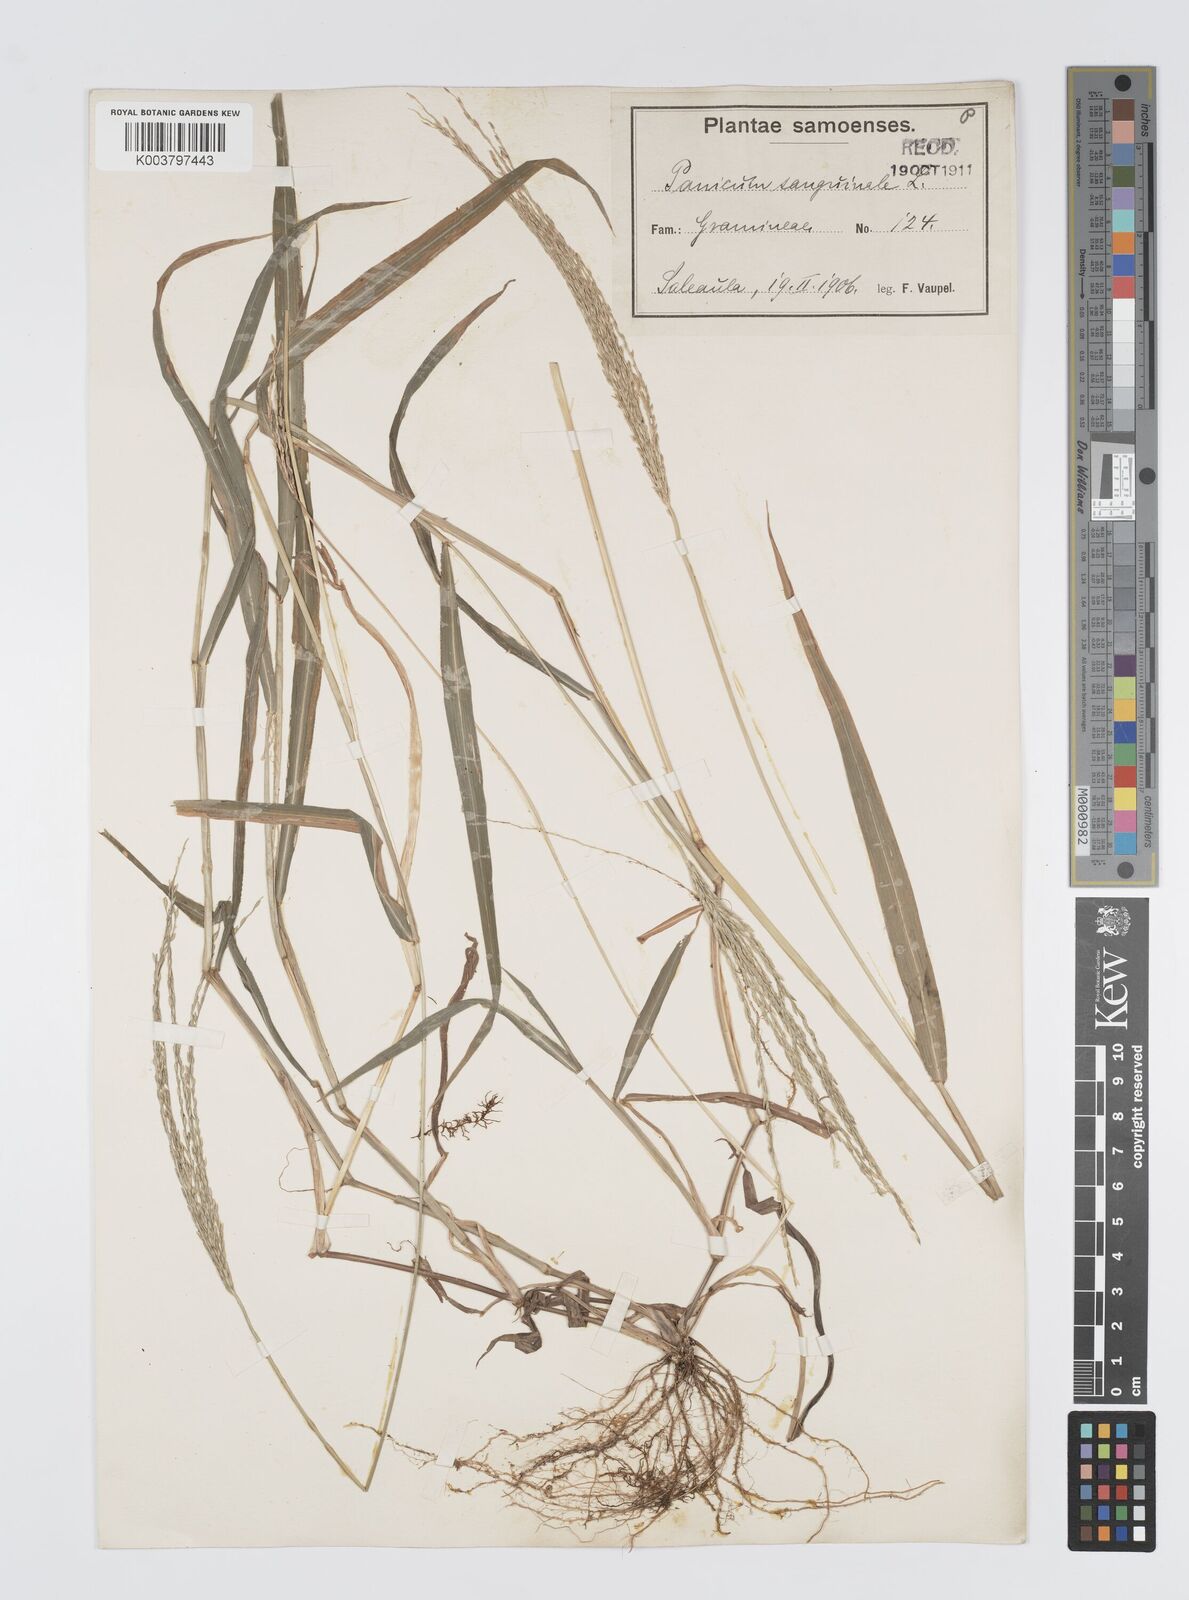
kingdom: Plantae
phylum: Tracheophyta
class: Liliopsida
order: Poales
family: Poaceae
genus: Digitaria
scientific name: Digitaria setigera
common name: East indian crabgrass
